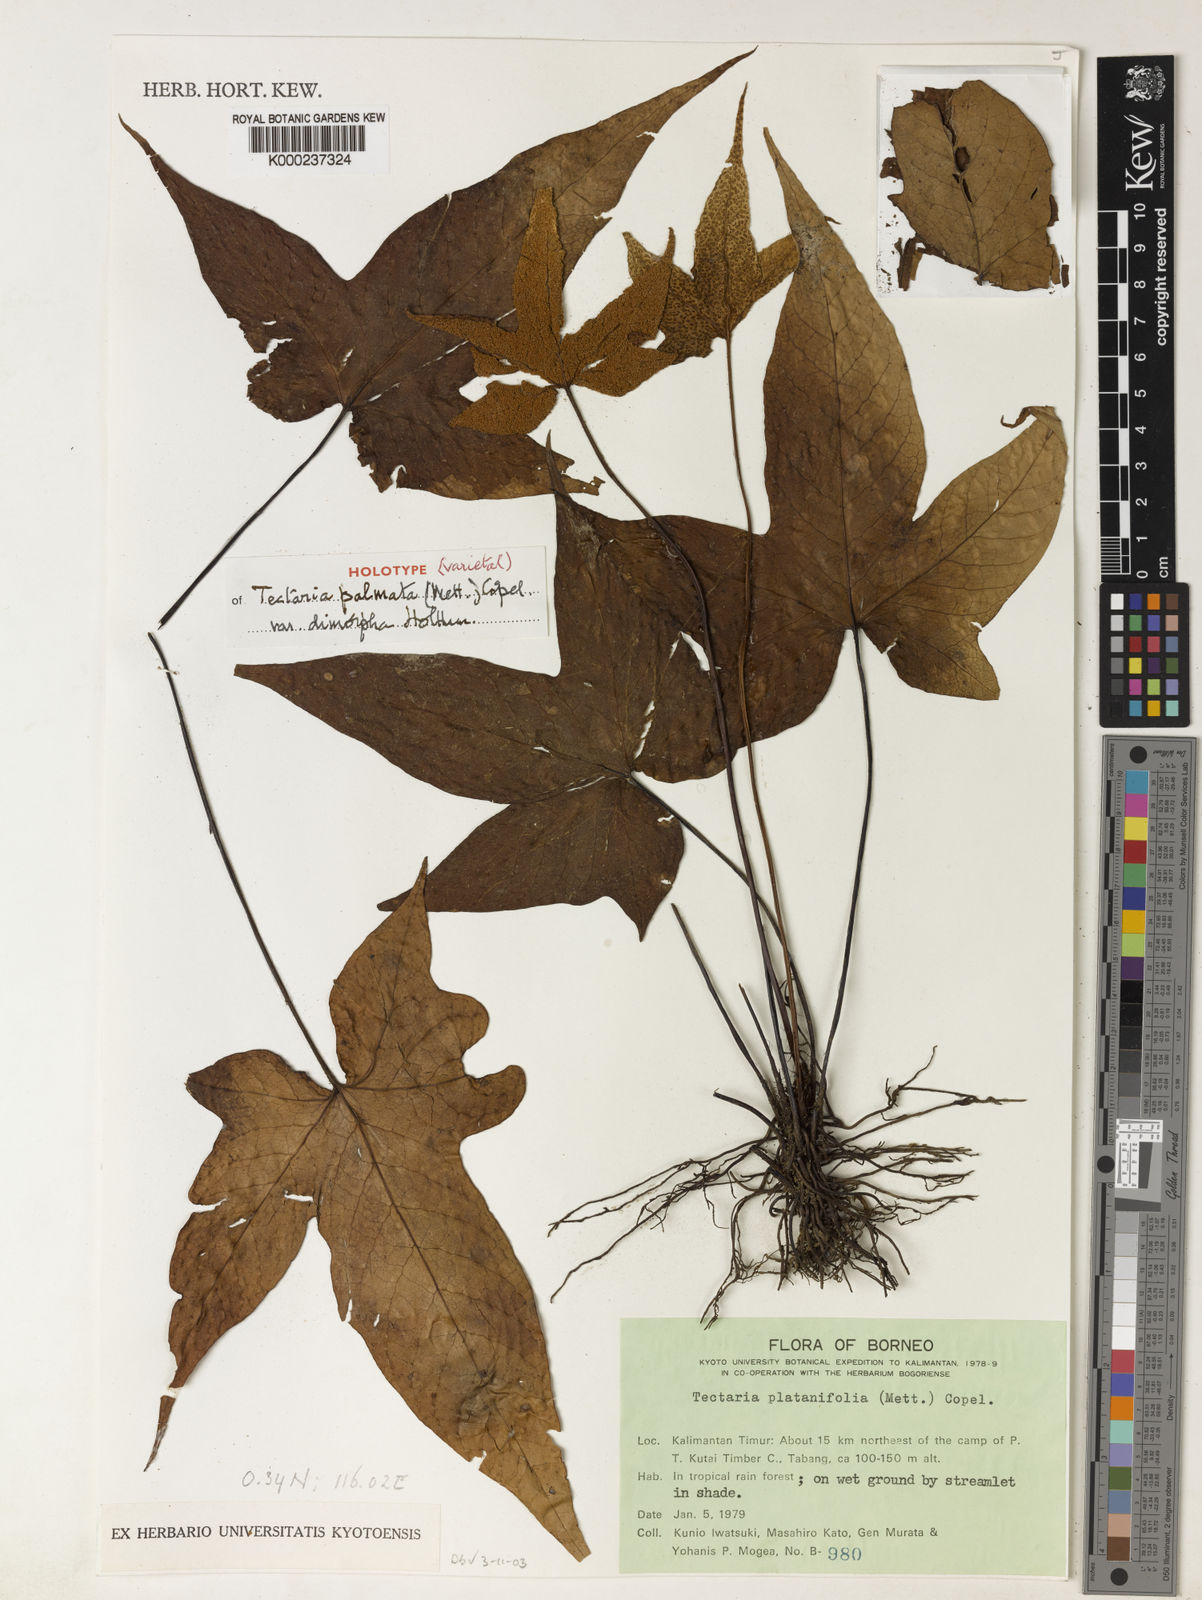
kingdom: Plantae
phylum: Tracheophyta
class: Polypodiopsida
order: Polypodiales
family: Tectariaceae
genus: Tectaria
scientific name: Tectaria palmata
